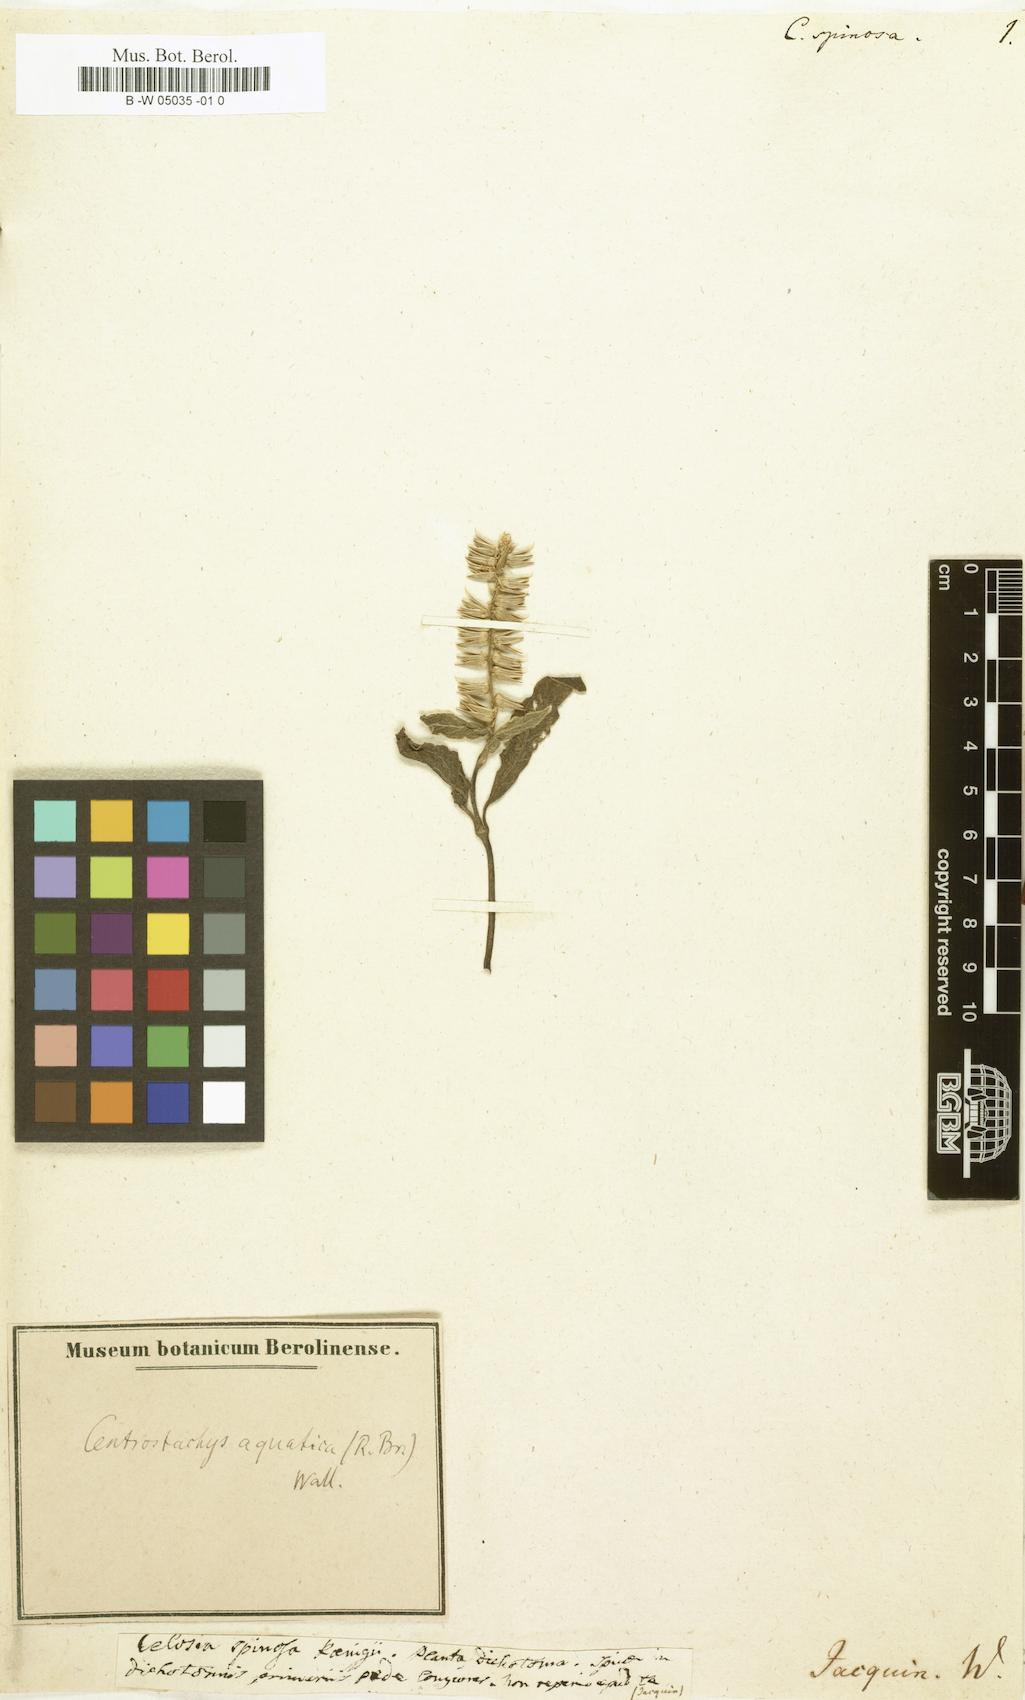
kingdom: Plantae
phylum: Tracheophyta
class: Magnoliopsida
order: Caryophyllales
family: Amaranthaceae
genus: Celosia
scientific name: Celosia
